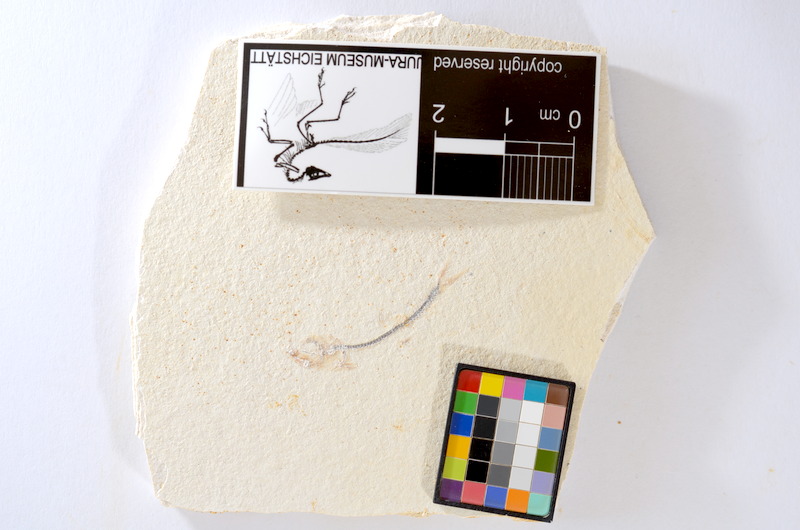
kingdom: Animalia
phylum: Chordata
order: Salmoniformes
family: Orthogonikleithridae
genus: Orthogonikleithrus
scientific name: Orthogonikleithrus hoelli
